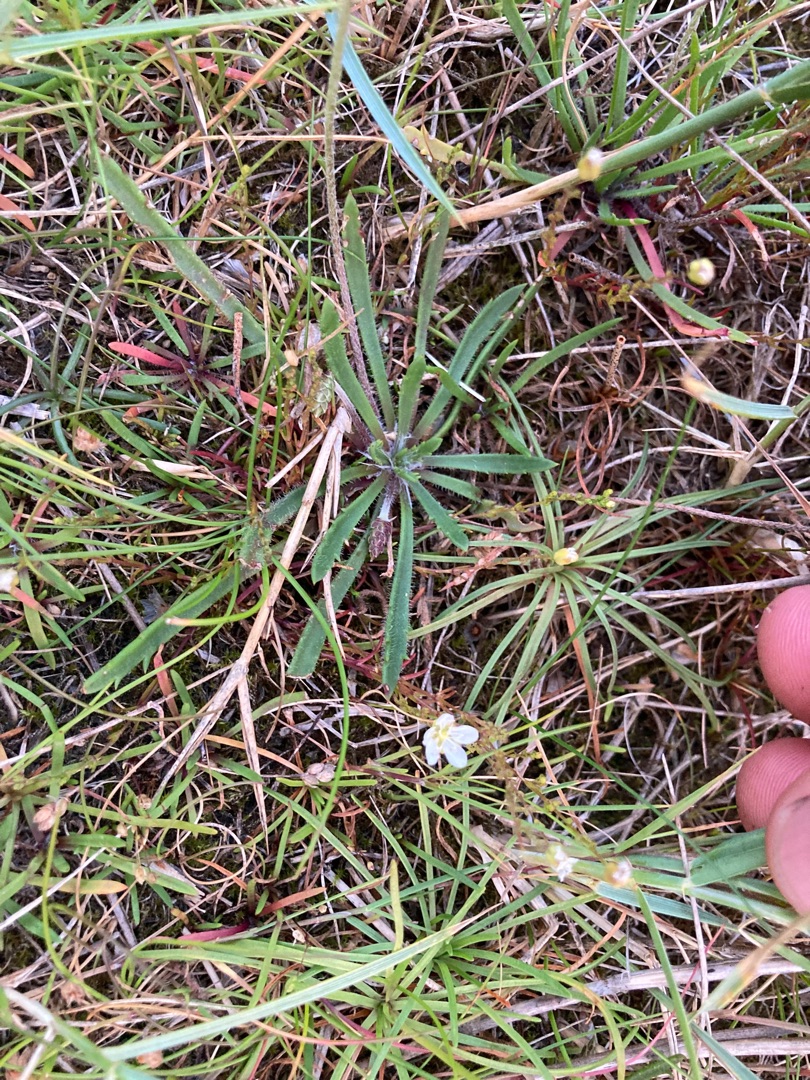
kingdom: Plantae
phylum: Tracheophyta
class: Magnoliopsida
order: Caryophyllales
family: Caryophyllaceae
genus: Sagina
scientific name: Sagina nodosa
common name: Knude-firling
